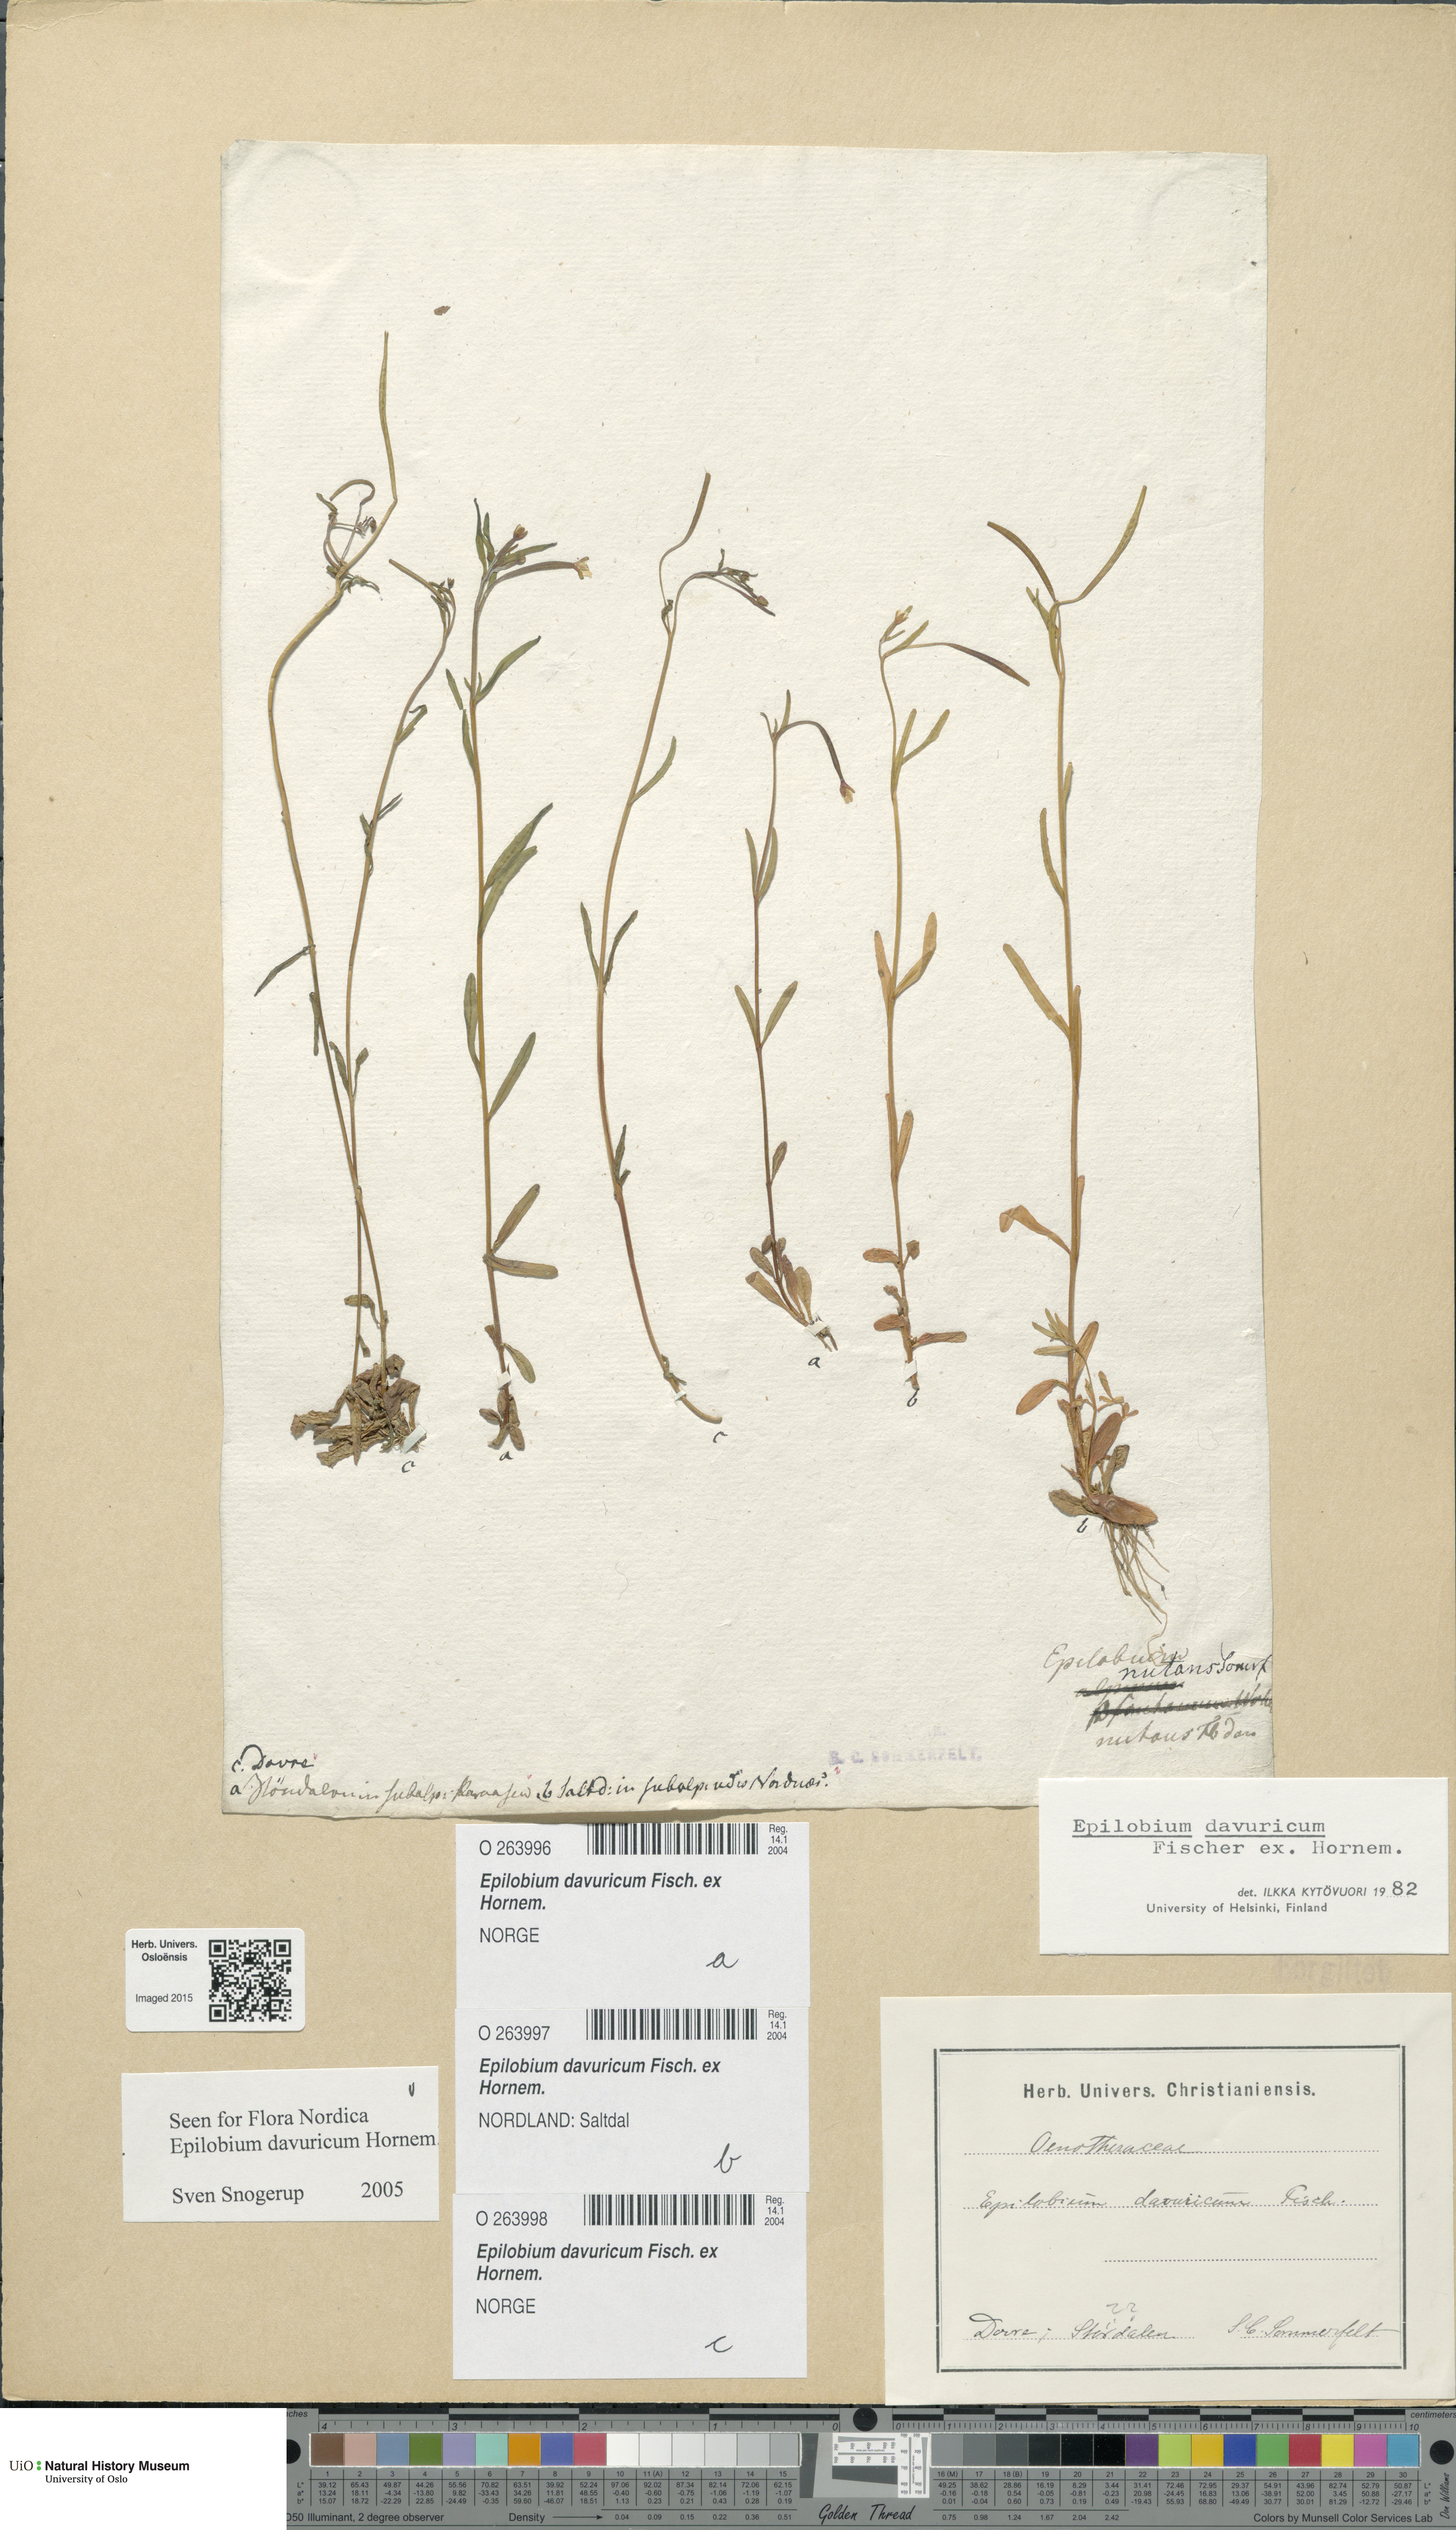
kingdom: Plantae
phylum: Tracheophyta
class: Magnoliopsida
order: Myrtales
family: Onagraceae
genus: Epilobium
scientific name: Epilobium davuricum
